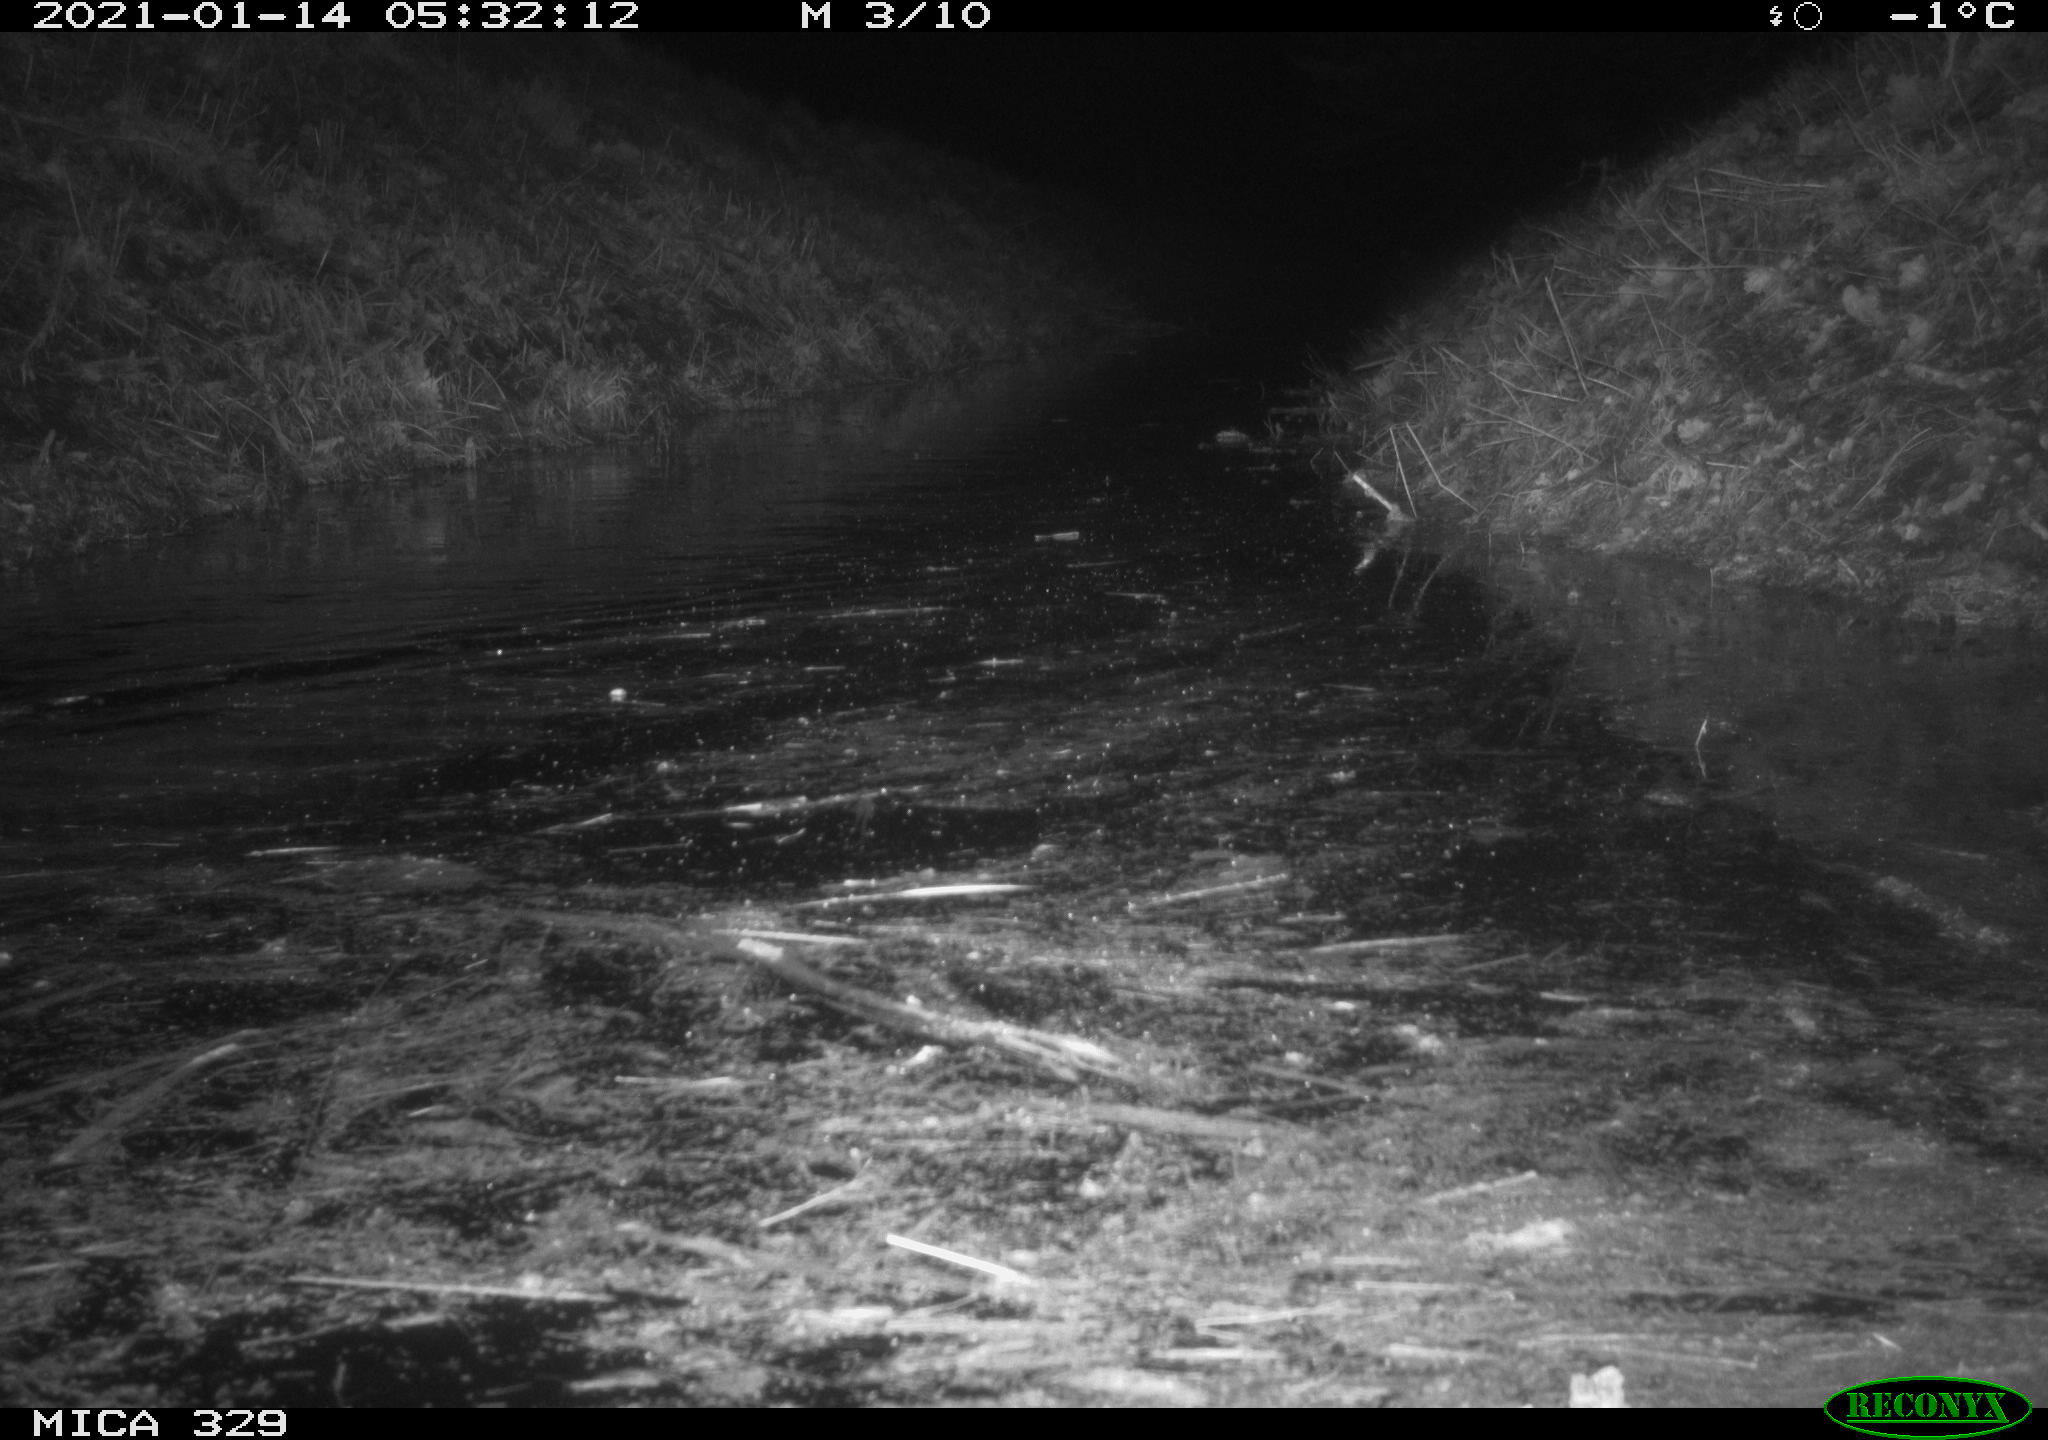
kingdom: Animalia
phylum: Chordata
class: Mammalia
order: Rodentia
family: Myocastoridae
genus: Myocastor
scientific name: Myocastor coypus
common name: Coypu
